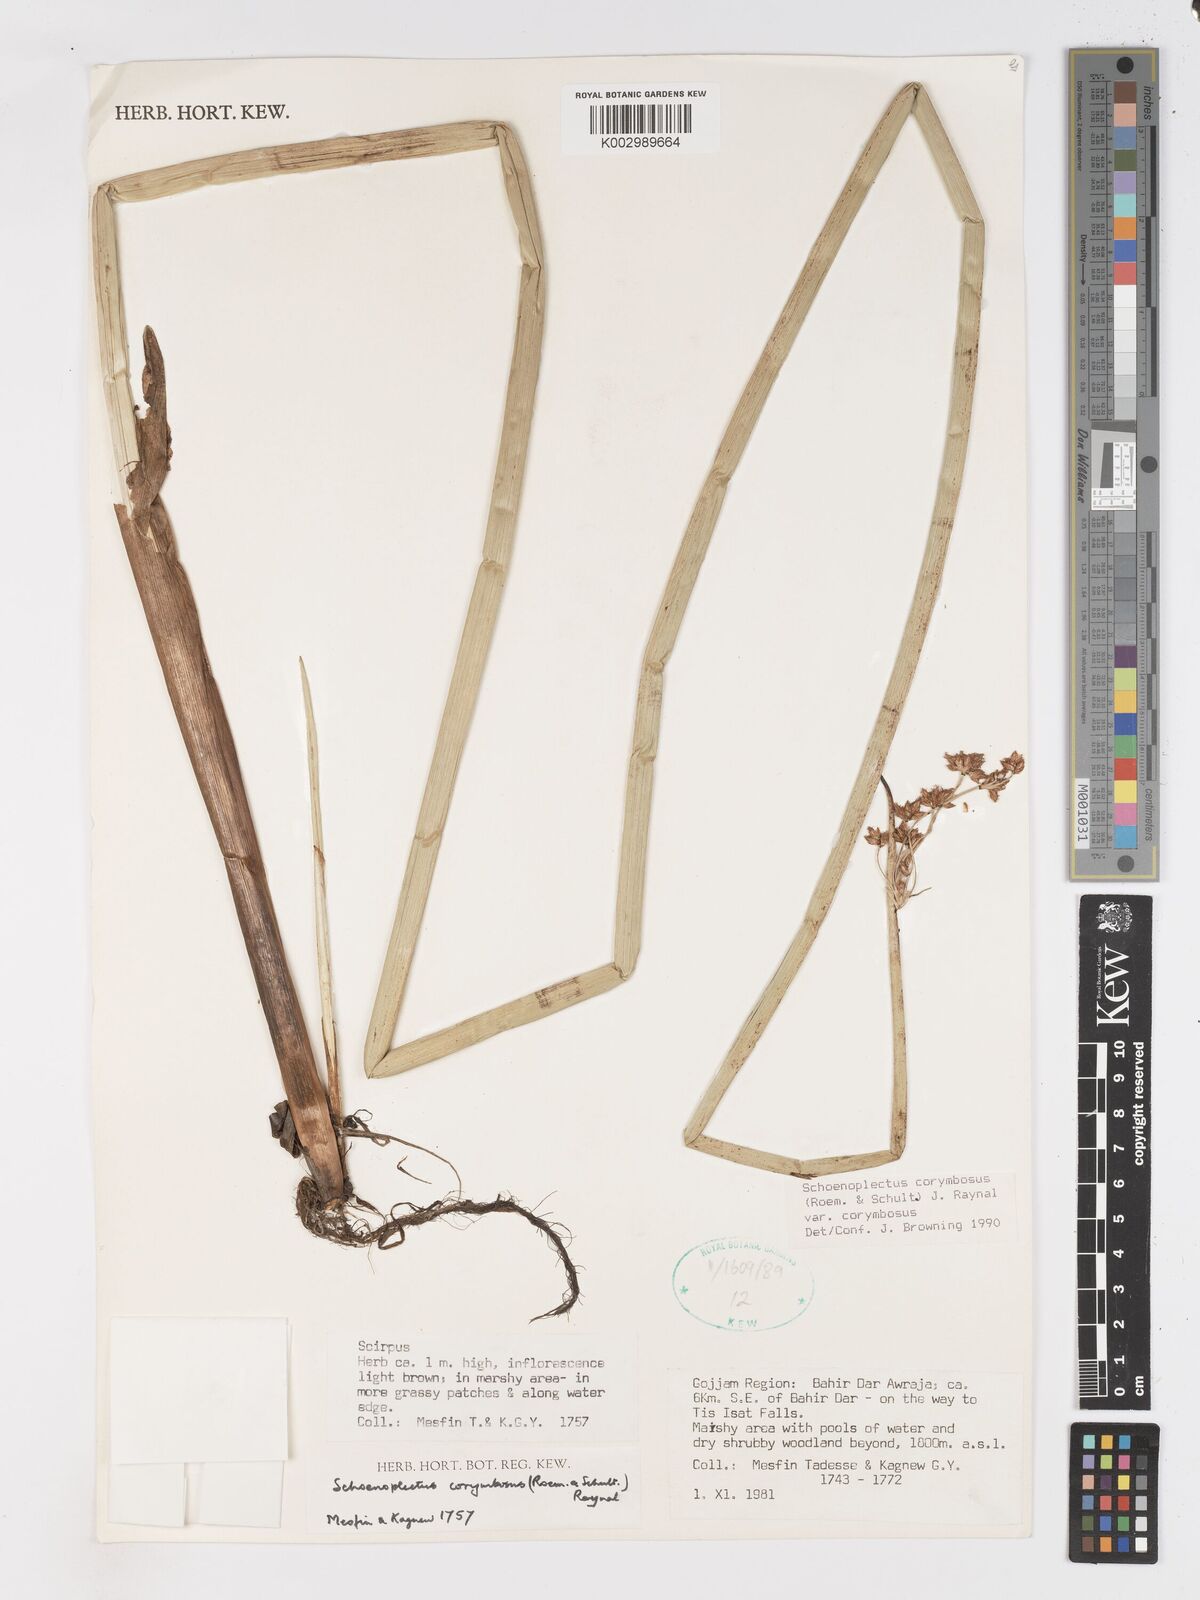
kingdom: Plantae
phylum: Tracheophyta
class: Liliopsida
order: Poales
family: Cyperaceae
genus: Schoenoplectiella
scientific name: Schoenoplectiella corymbosa
